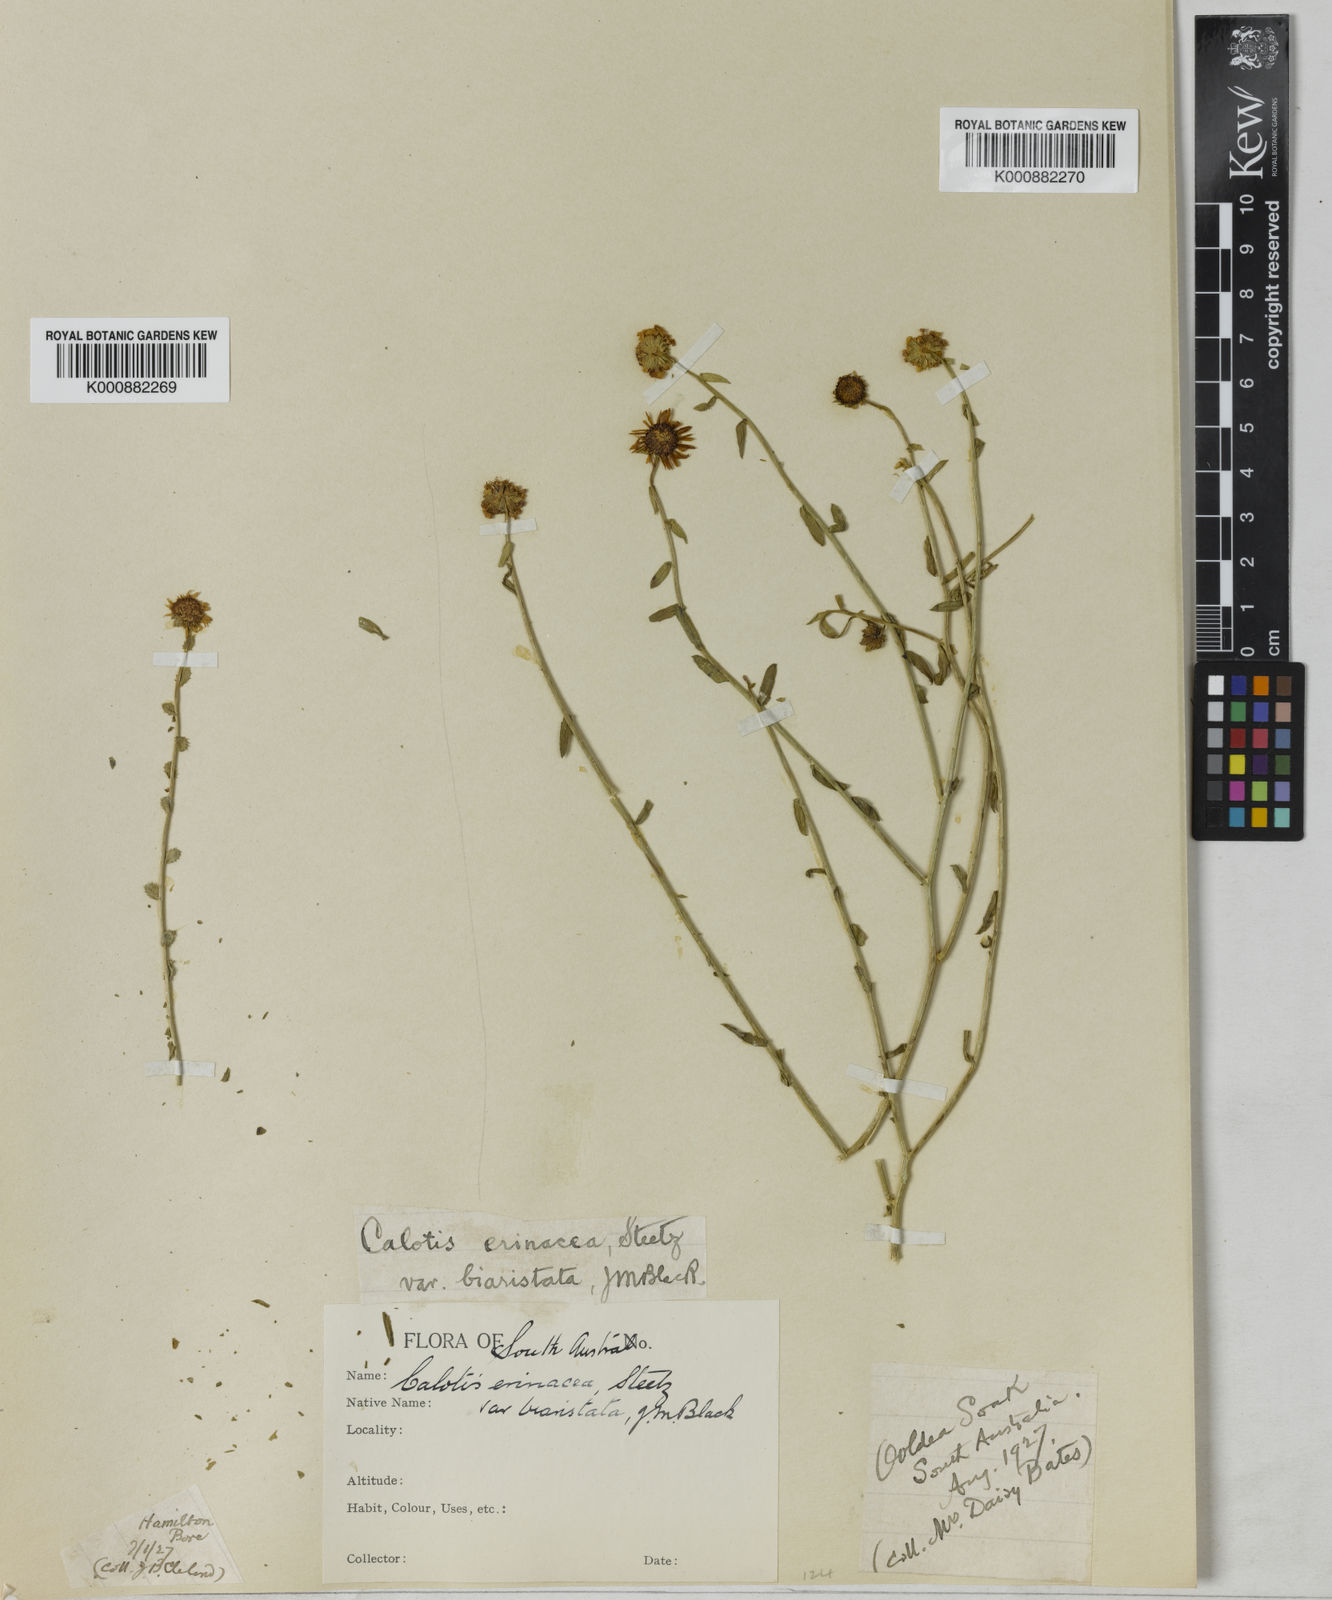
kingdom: Plantae
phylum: Tracheophyta
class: Magnoliopsida
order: Asterales
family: Asteraceae
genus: Calotis
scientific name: Calotis erinacea
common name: Tangled bur daisy
